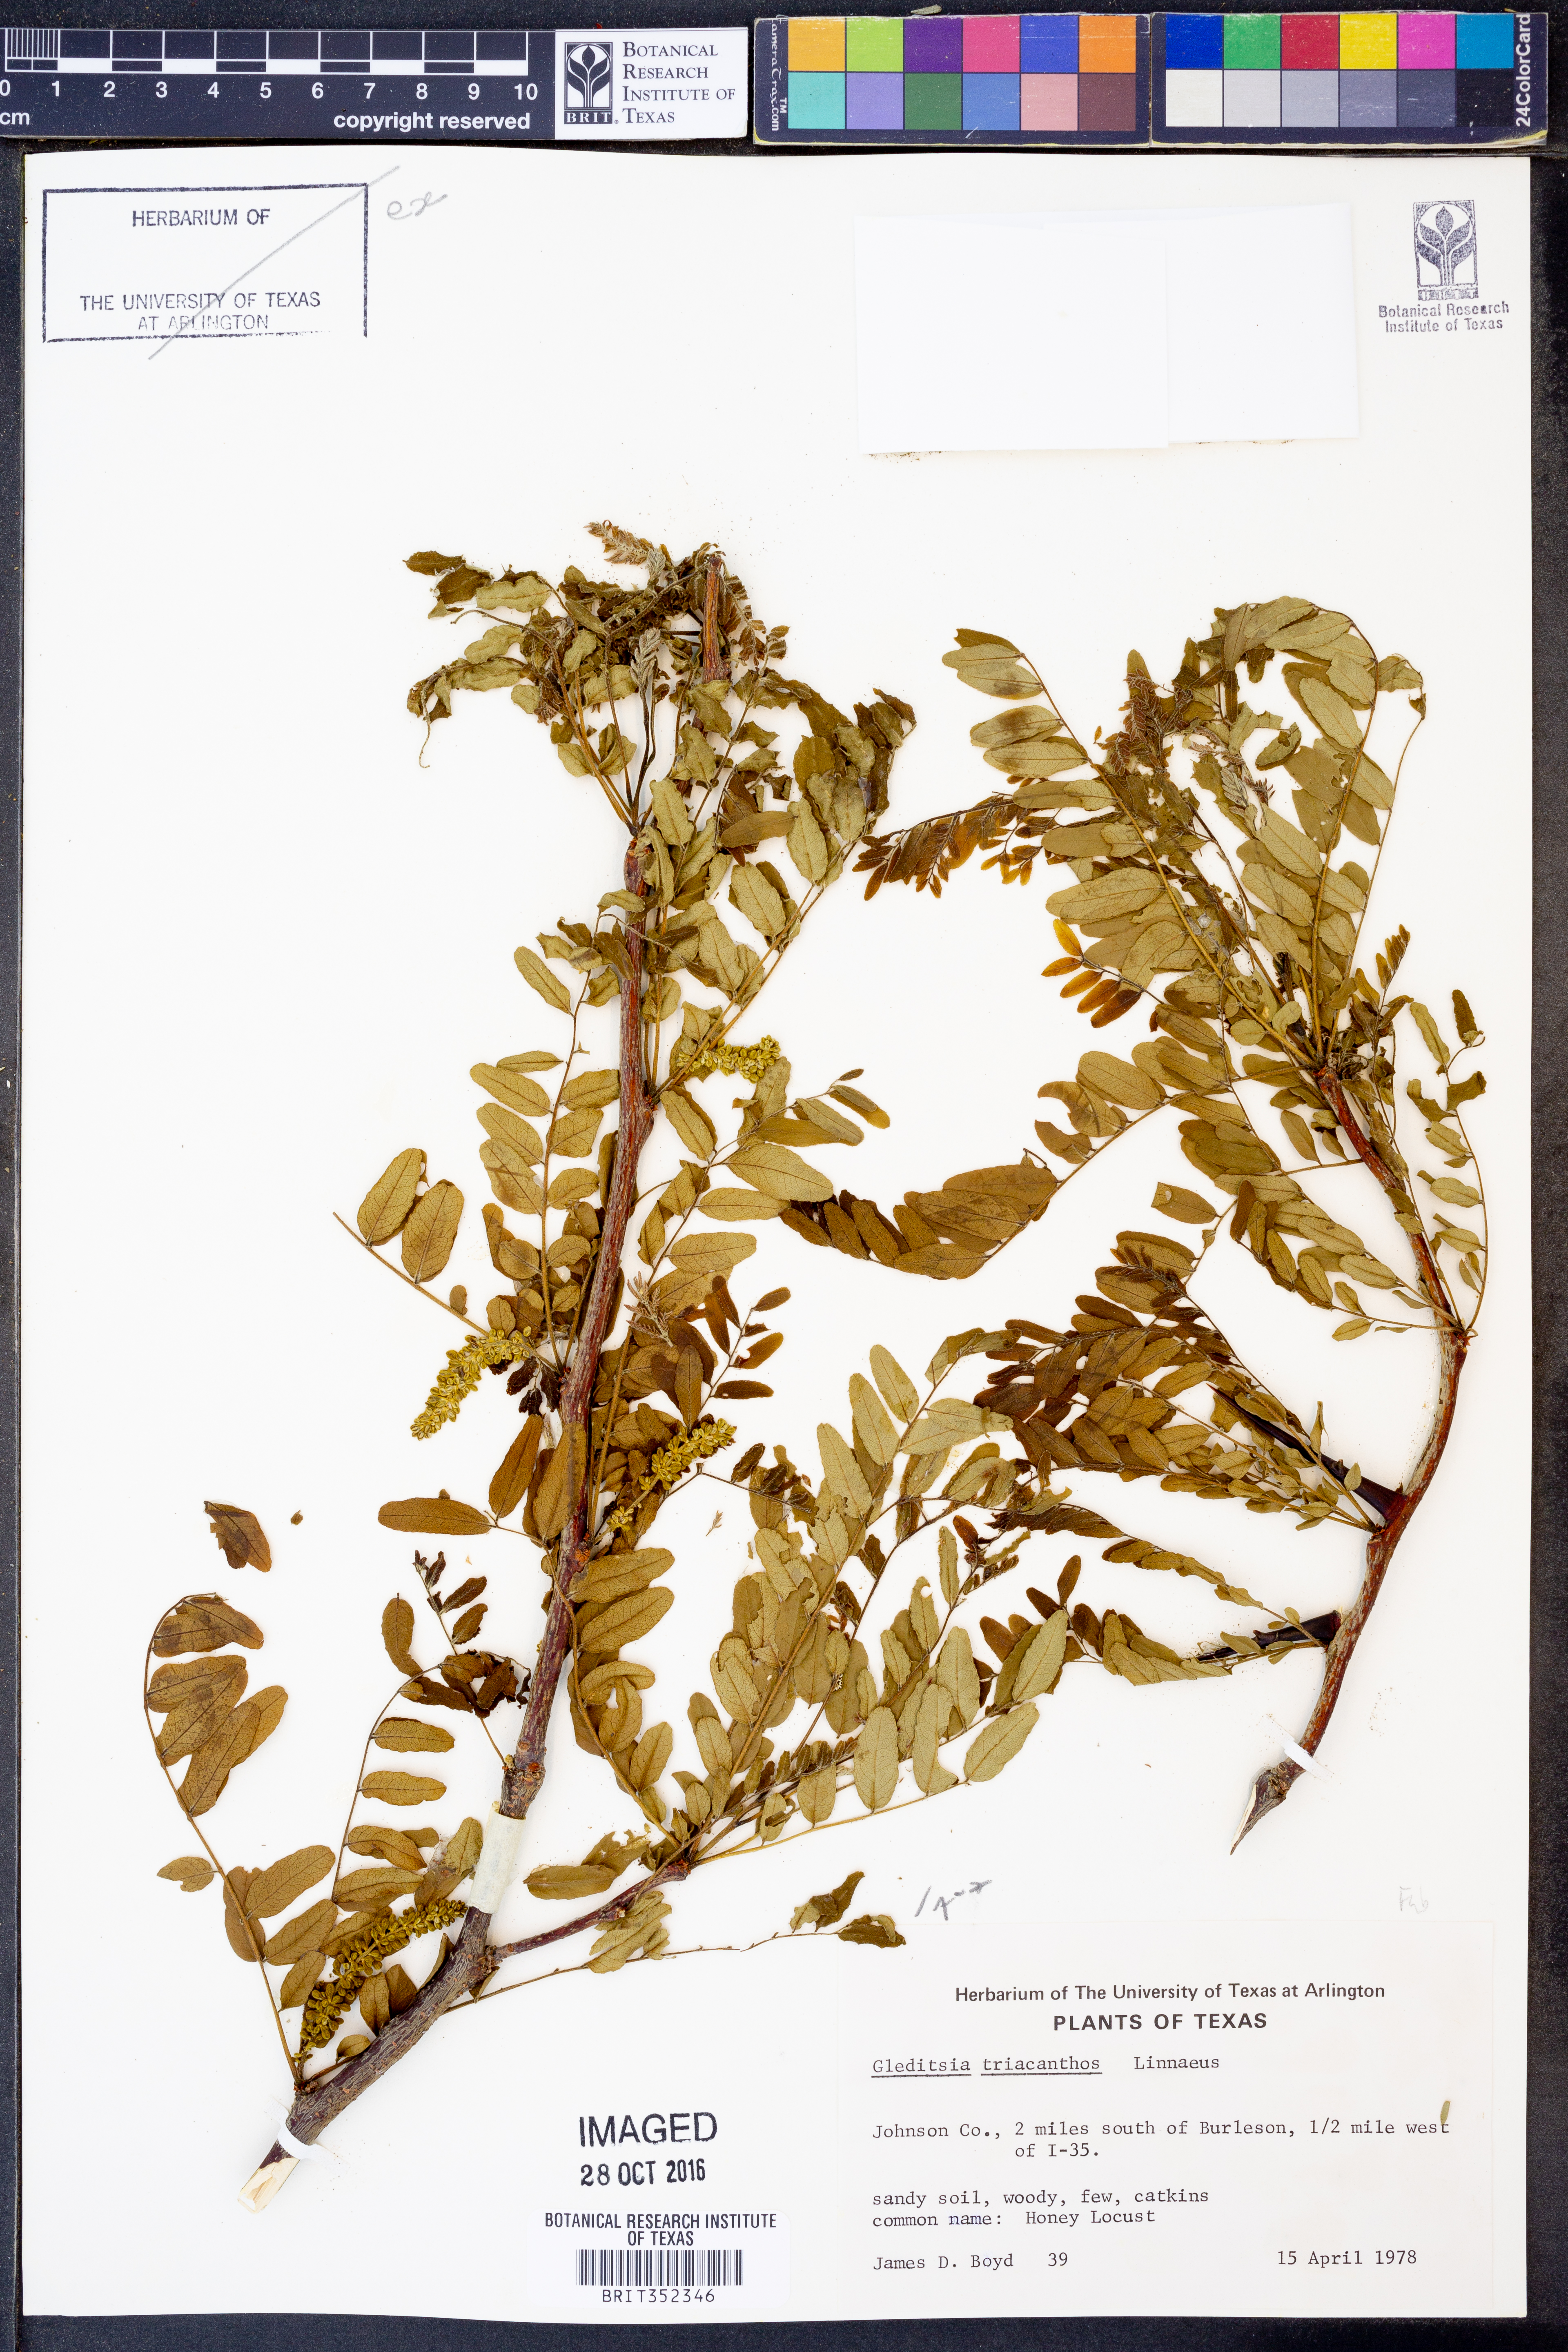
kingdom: Plantae
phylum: Tracheophyta
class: Magnoliopsida
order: Fabales
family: Fabaceae
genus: Gleditsia
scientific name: Gleditsia triacanthos
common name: Common honeylocust
